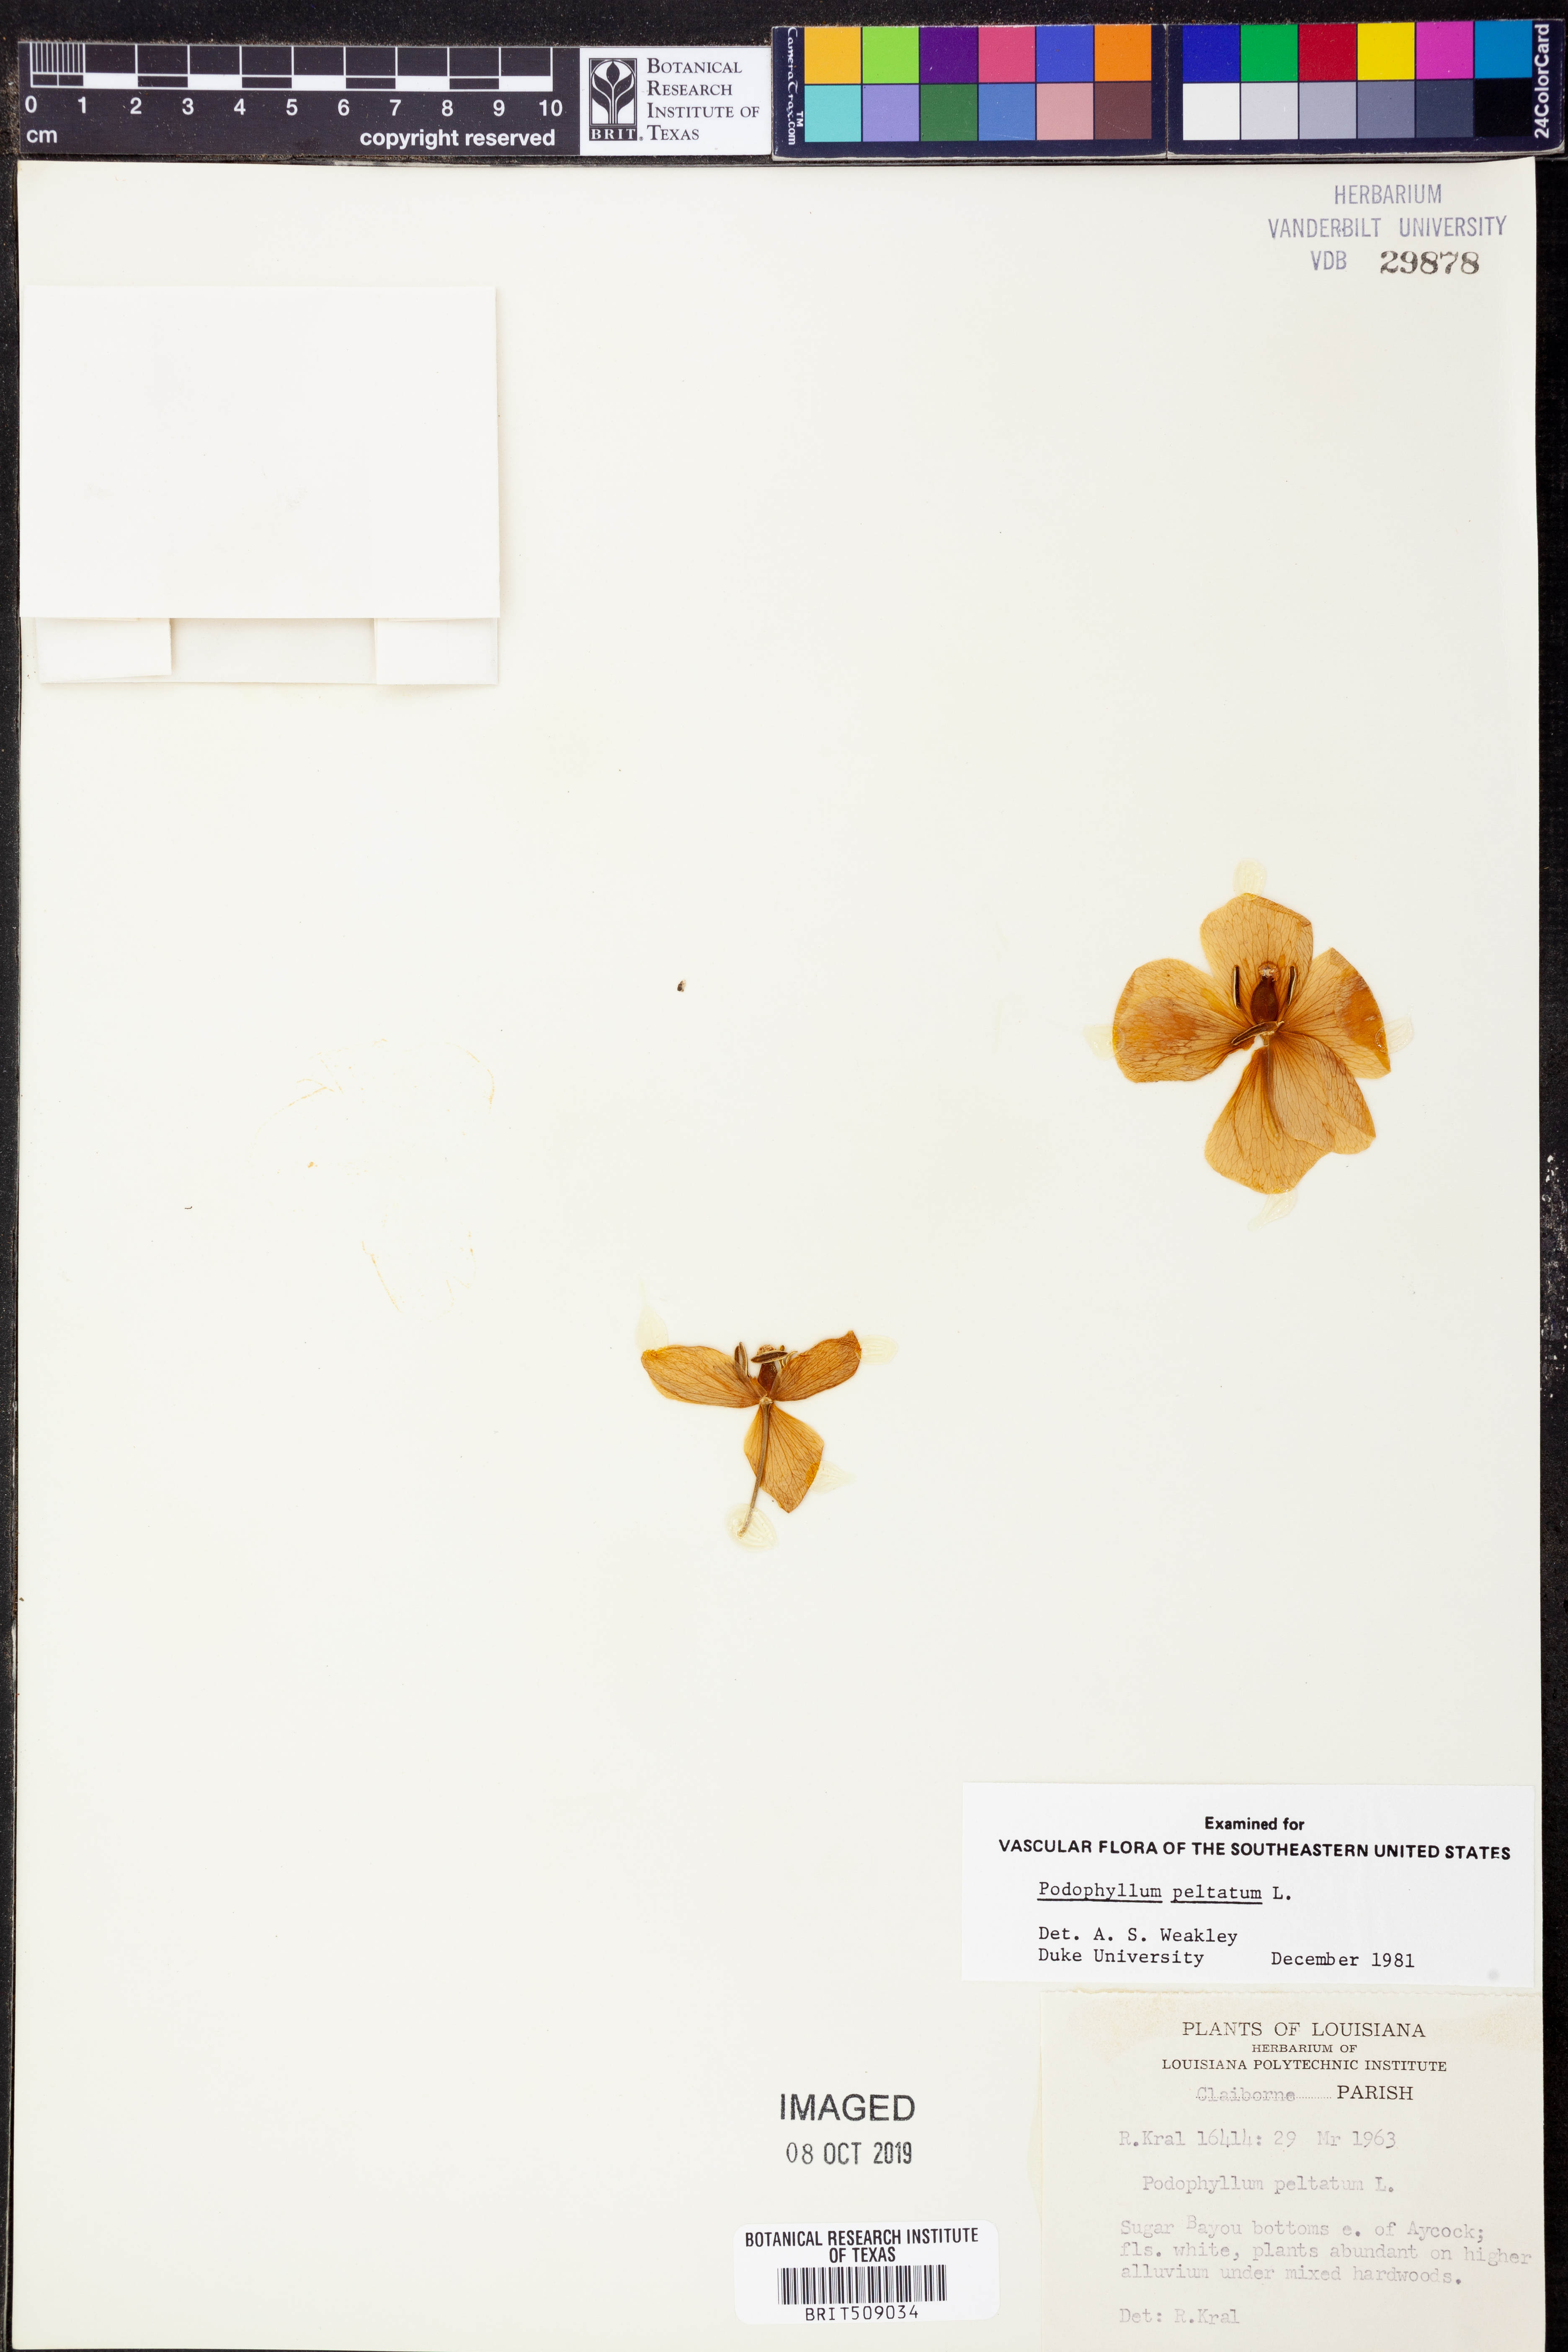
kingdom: Plantae
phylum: Tracheophyta
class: Magnoliopsida
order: Ranunculales
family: Berberidaceae
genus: Podophyllum
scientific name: Podophyllum peltatum
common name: Wild mandrake
